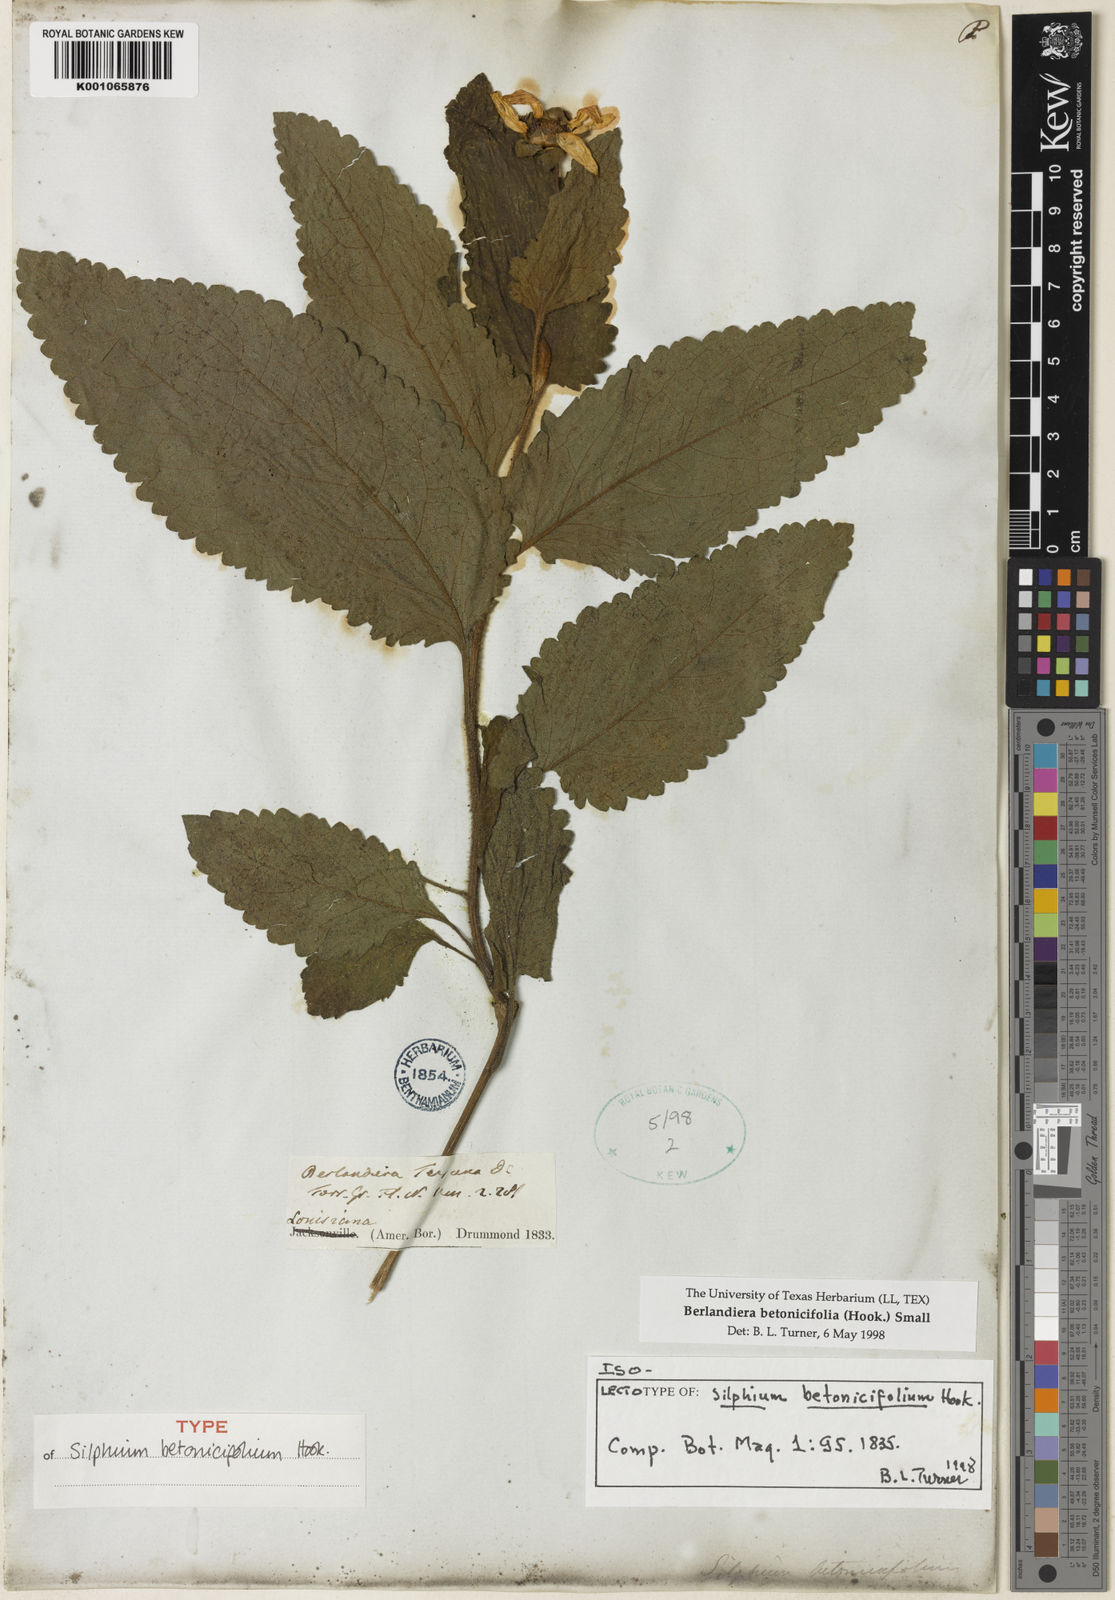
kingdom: Plantae
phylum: Tracheophyta
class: Magnoliopsida
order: Asterales
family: Asteraceae
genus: Berlandiera
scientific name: Berlandiera
